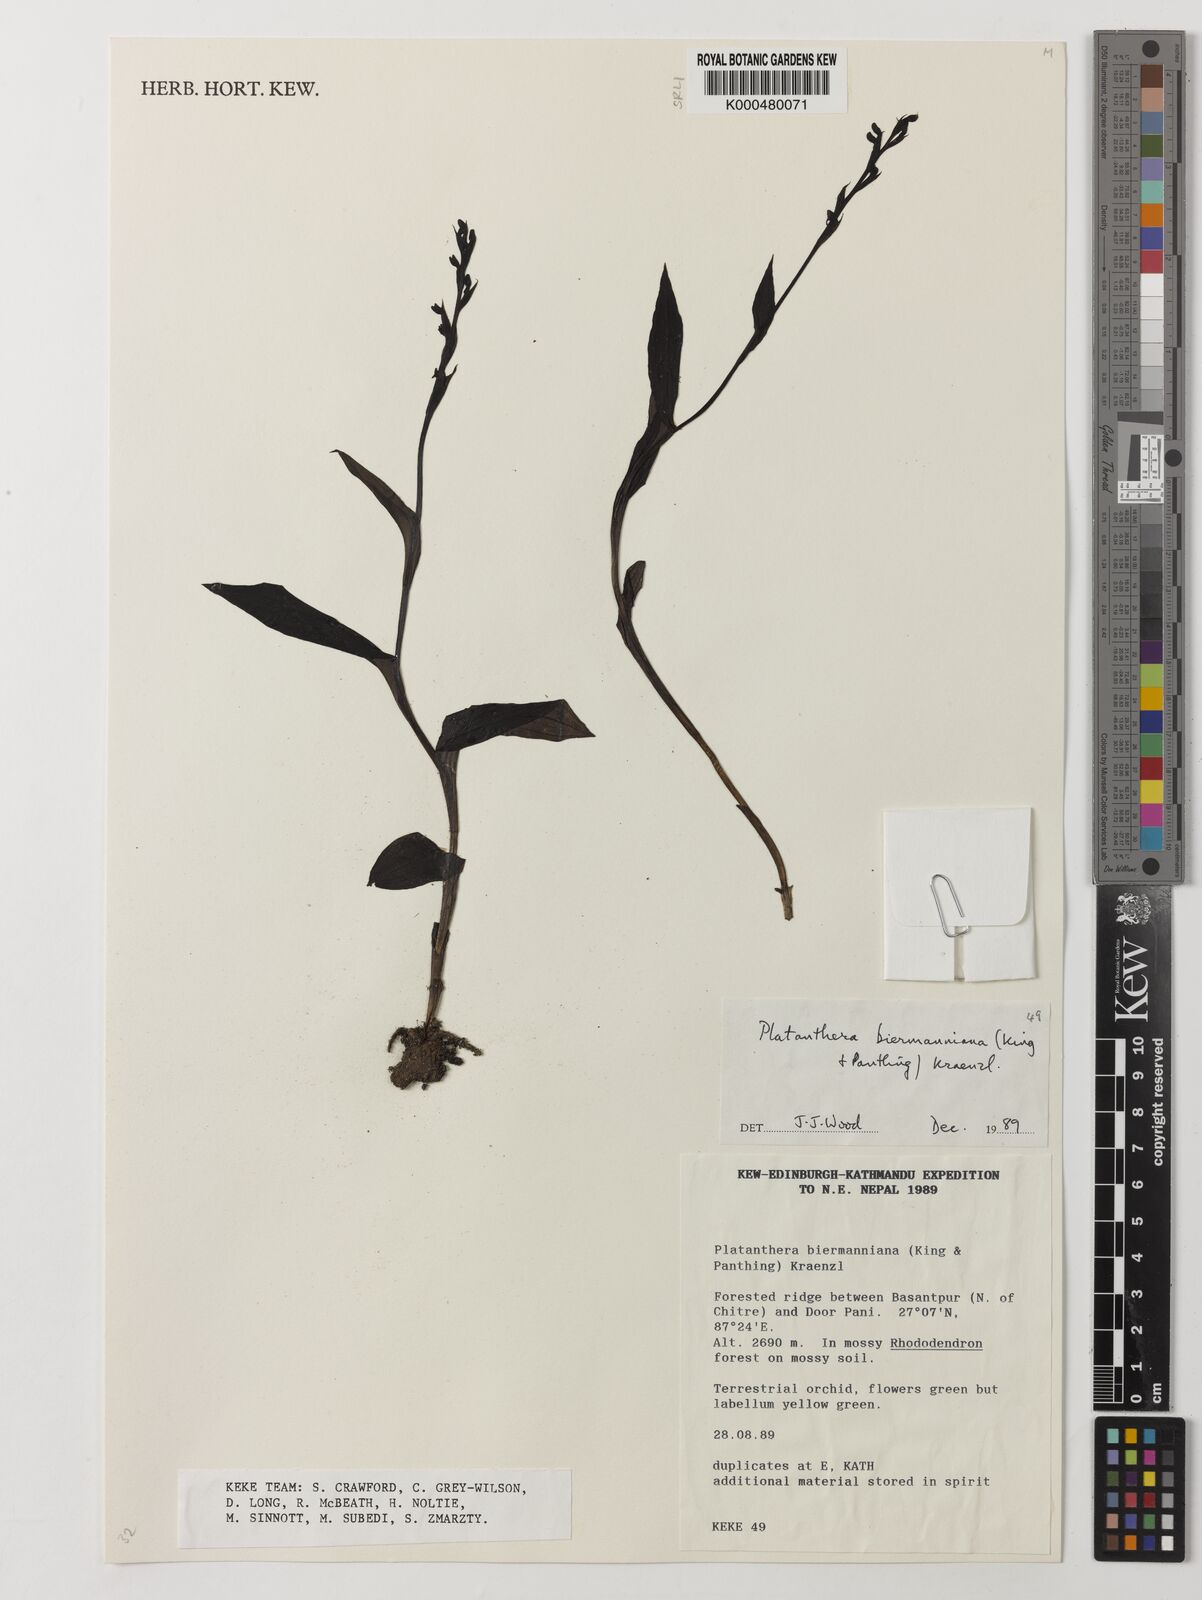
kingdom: Plantae
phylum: Tracheophyta
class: Liliopsida
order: Asparagales
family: Orchidaceae
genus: Peristylus
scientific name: Peristylus biermannianus
